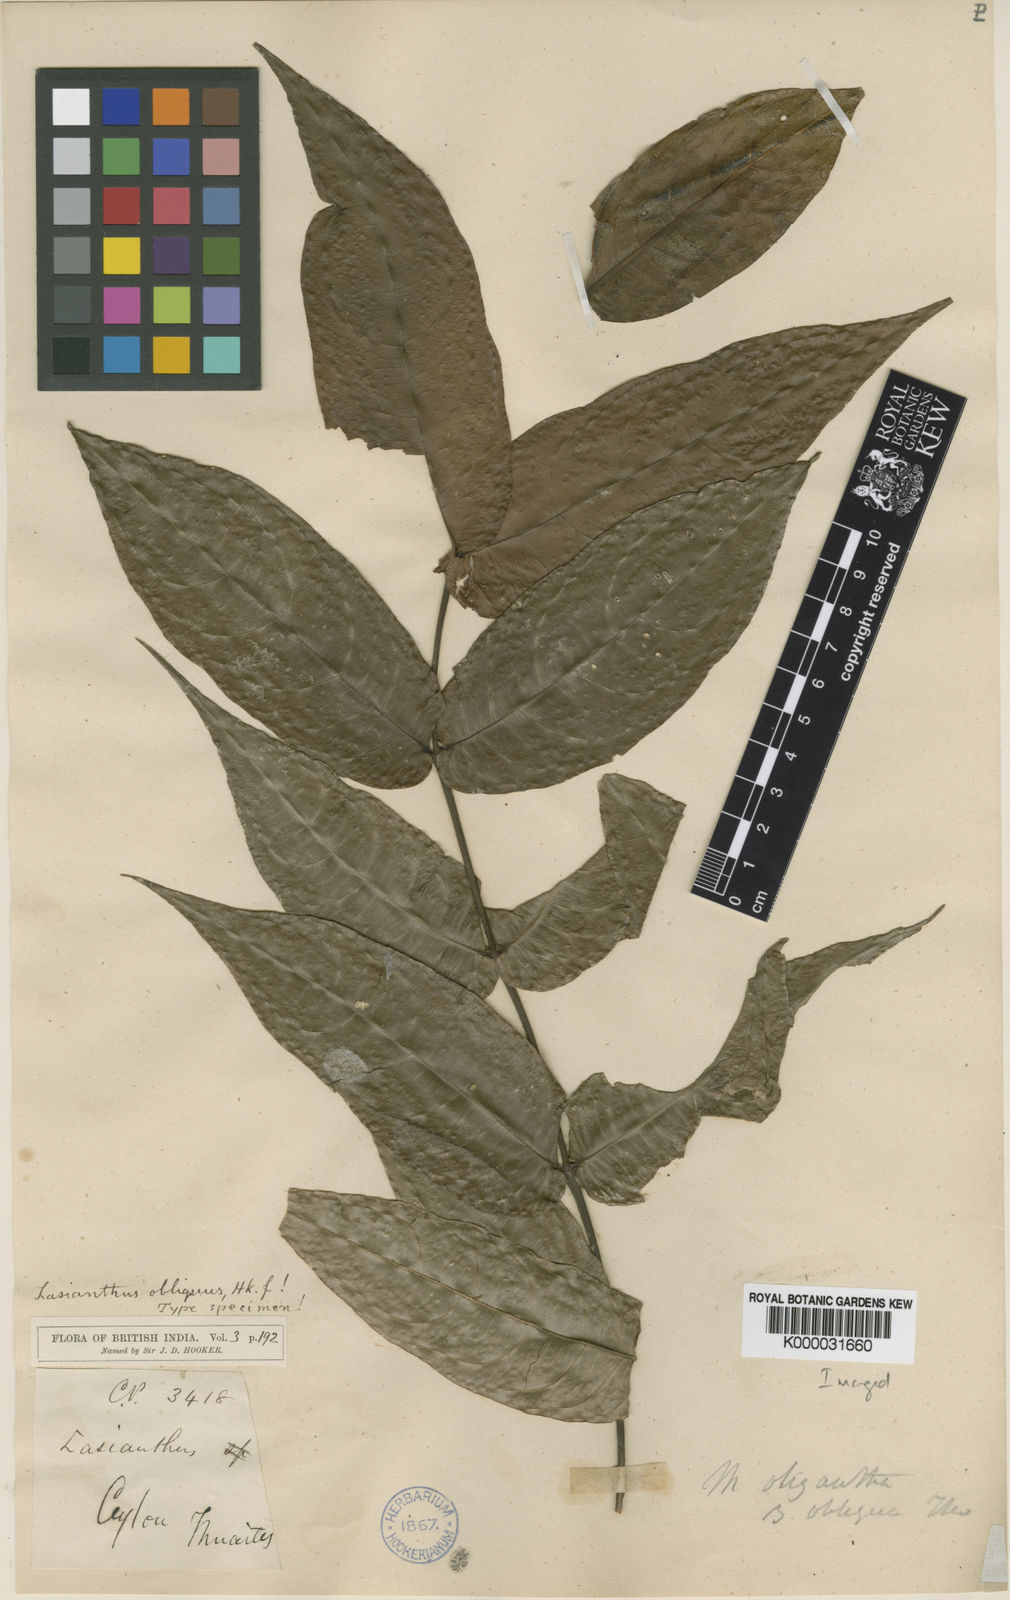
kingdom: Plantae
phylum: Tracheophyta
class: Magnoliopsida
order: Gentianales
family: Rubiaceae
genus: Lasianthus
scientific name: Lasianthus obliquus
